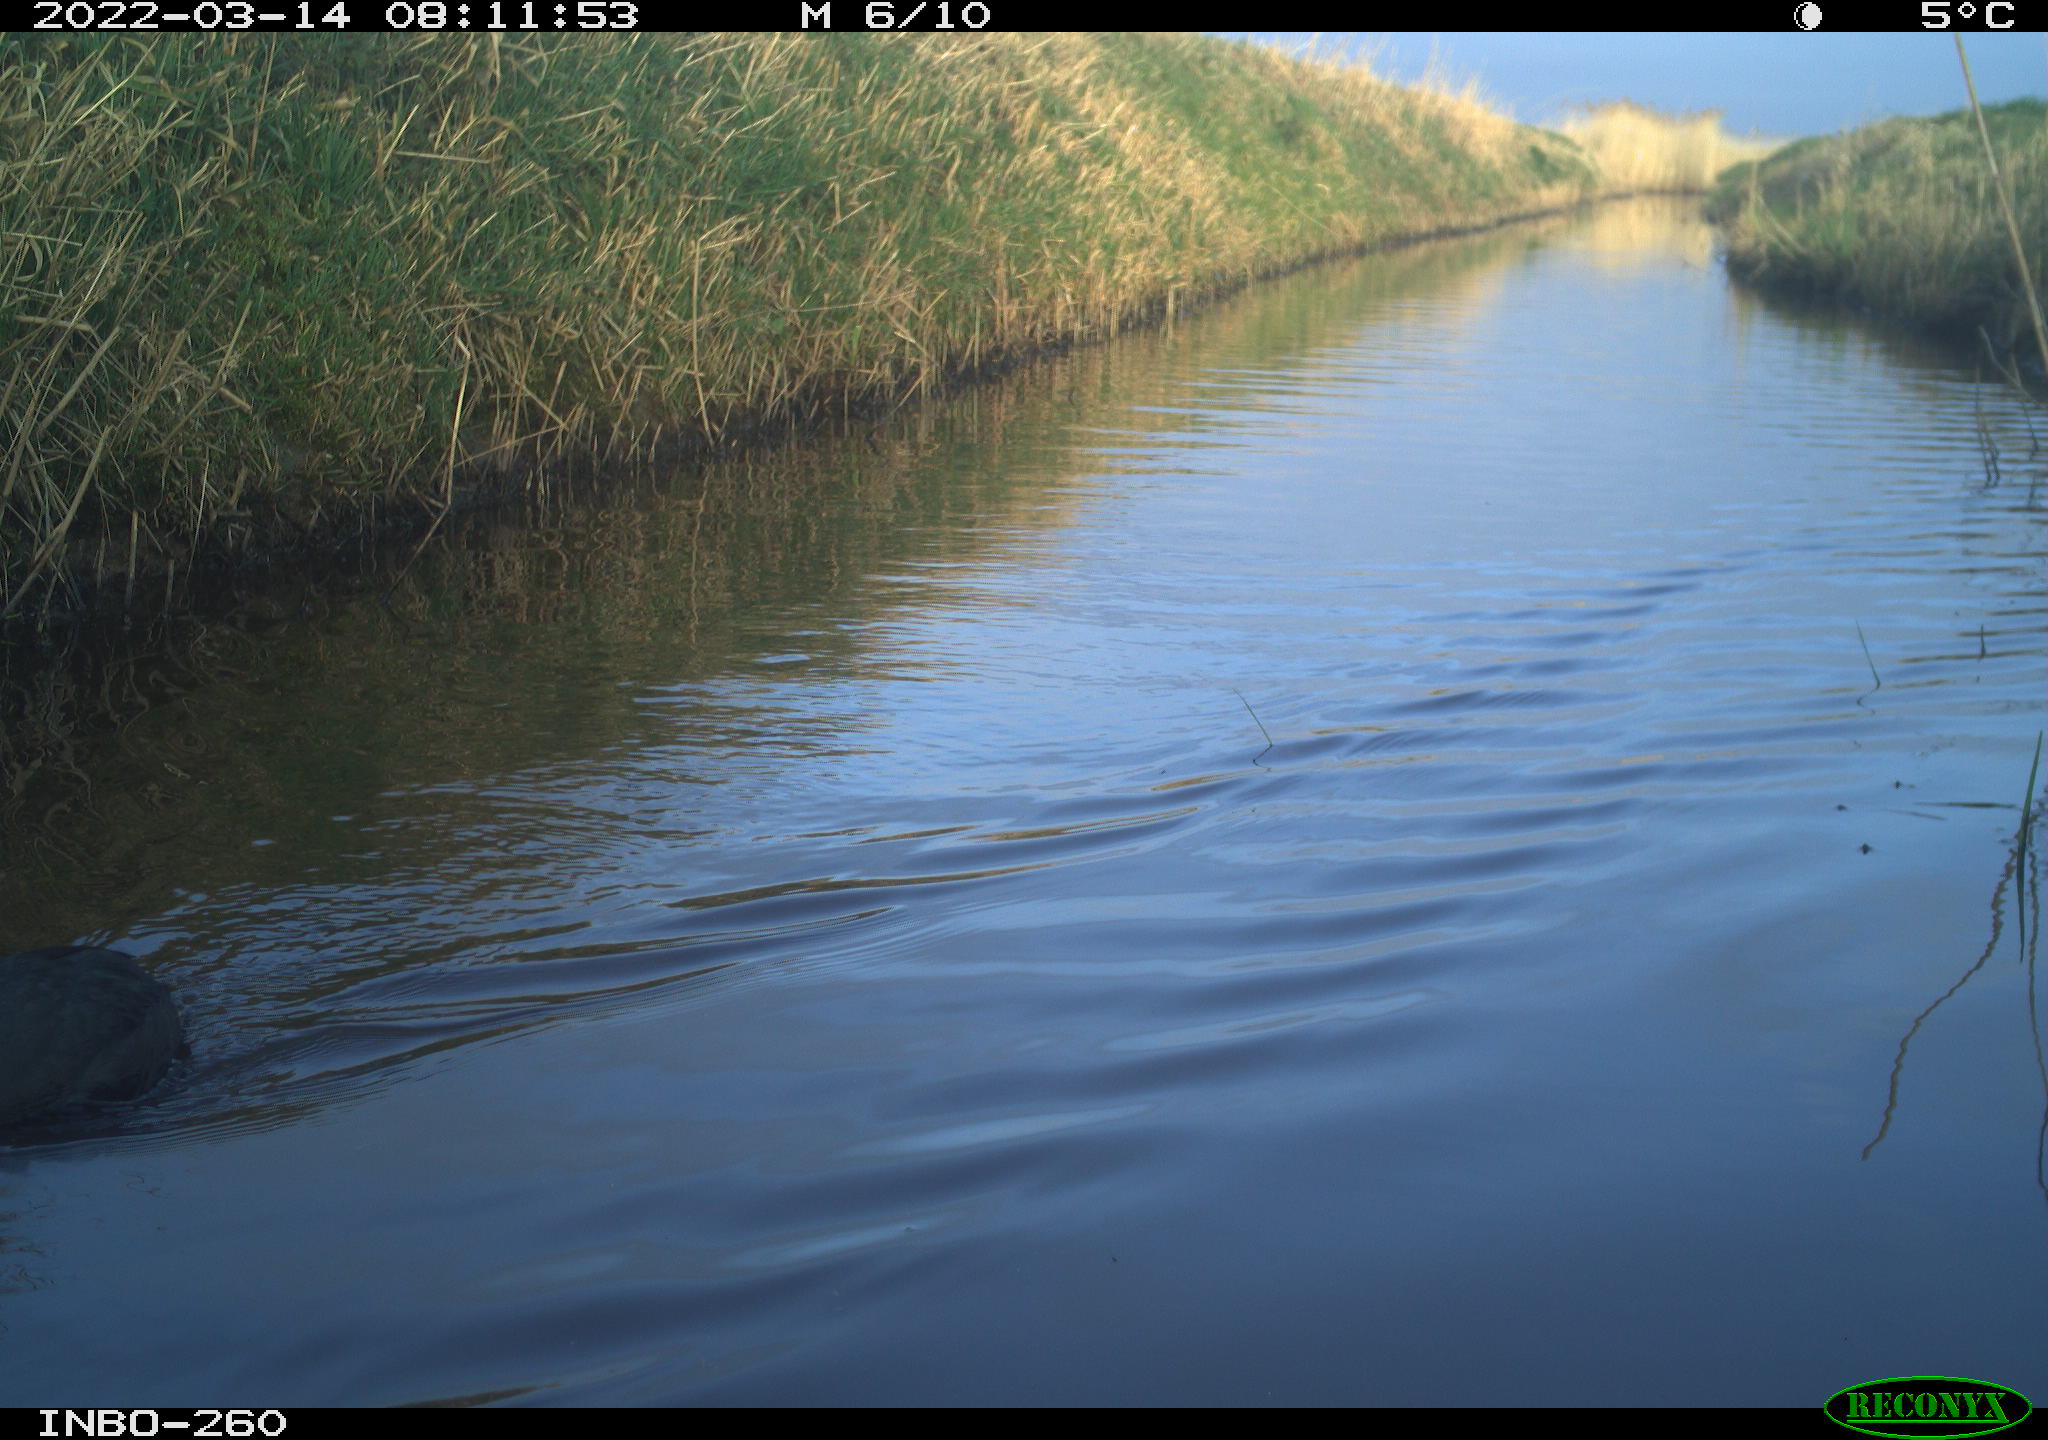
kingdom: Animalia
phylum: Chordata
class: Aves
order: Gruiformes
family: Rallidae
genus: Fulica
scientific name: Fulica atra
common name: Eurasian coot
